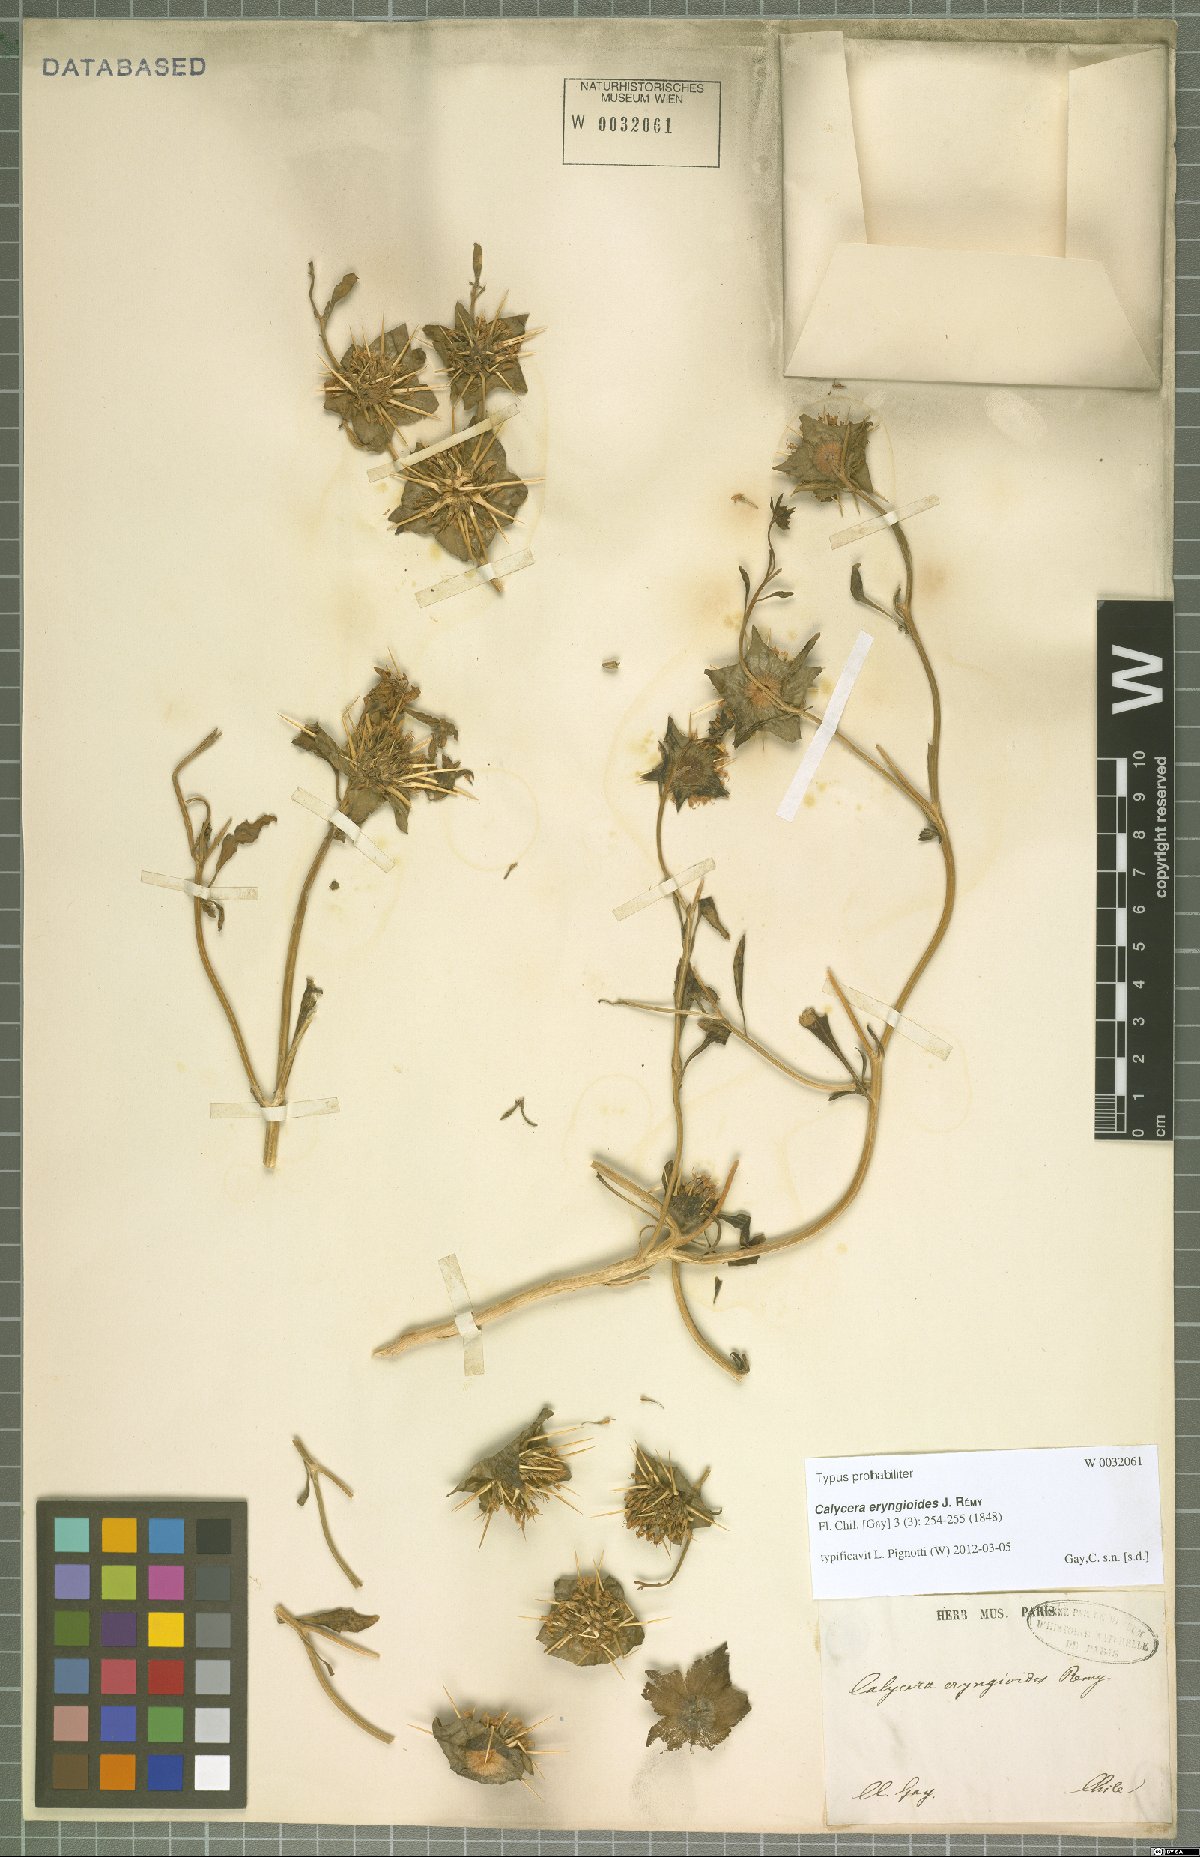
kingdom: Plantae
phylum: Tracheophyta
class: Magnoliopsida
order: Asterales
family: Calyceraceae
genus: Leucocera
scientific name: Leucocera eryngioides
